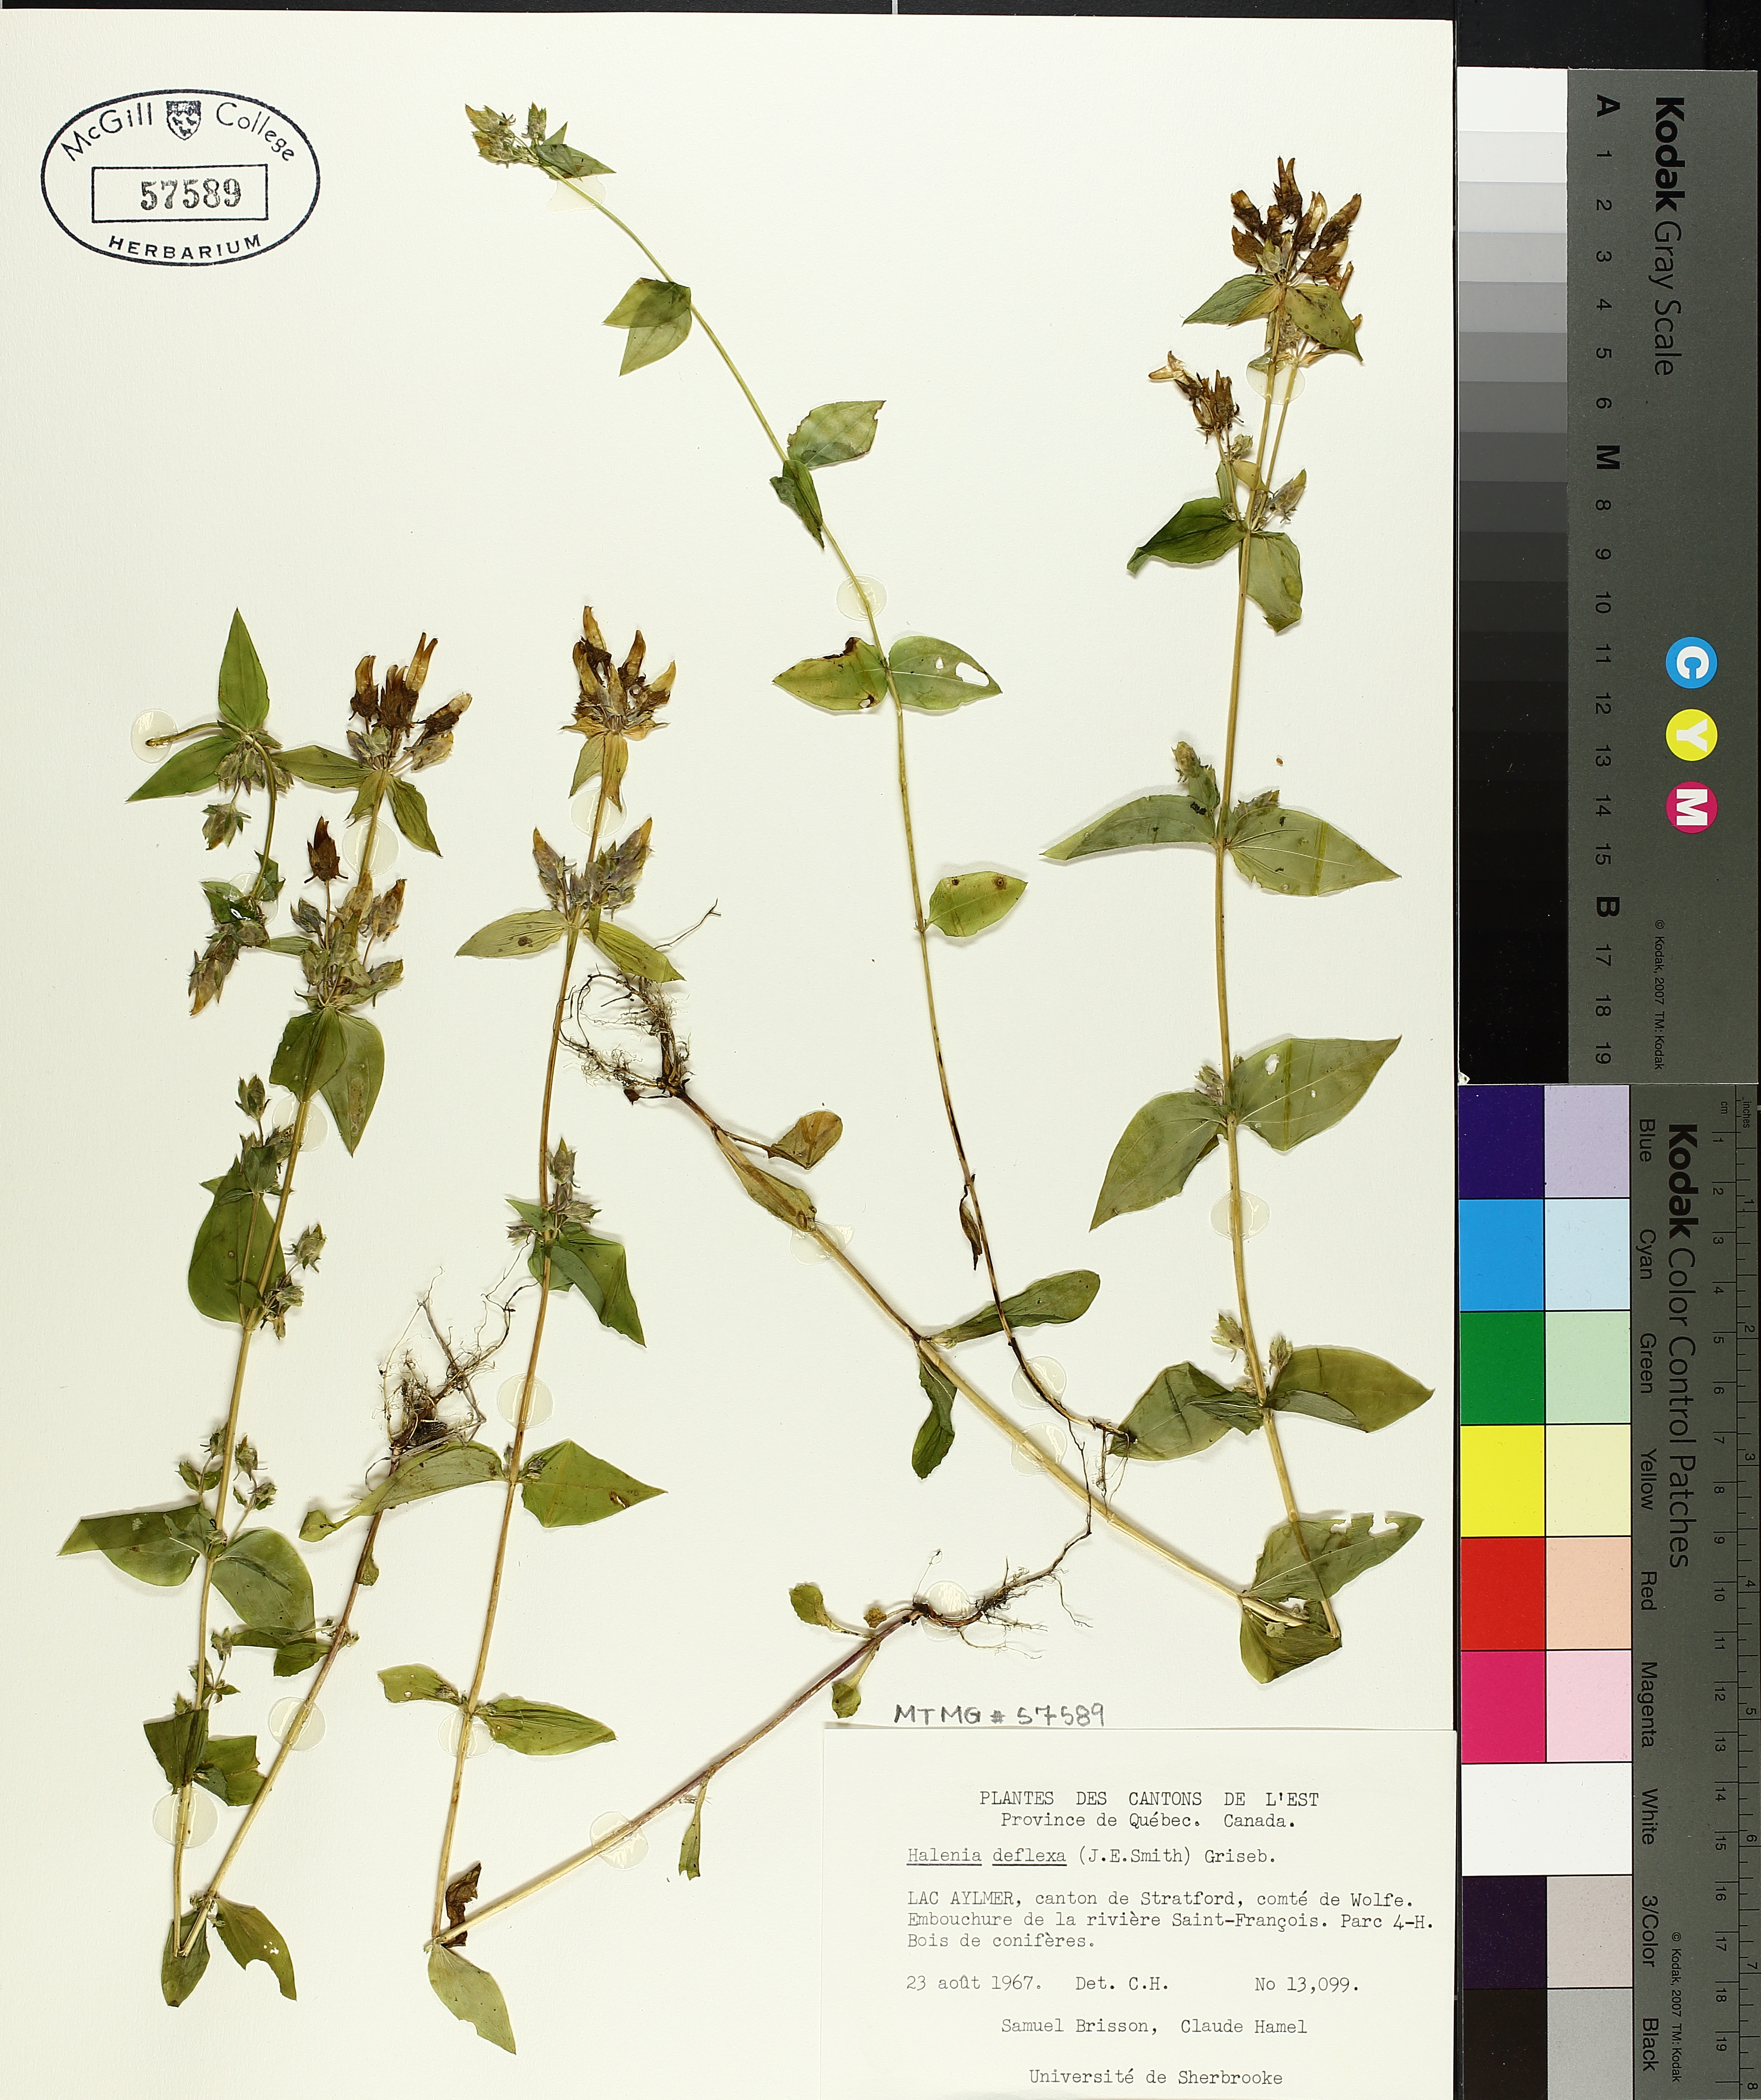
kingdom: Plantae
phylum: Tracheophyta
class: Magnoliopsida
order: Gentianales
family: Gentianaceae
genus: Halenia
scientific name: Halenia deflexa
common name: American spurred gentian
